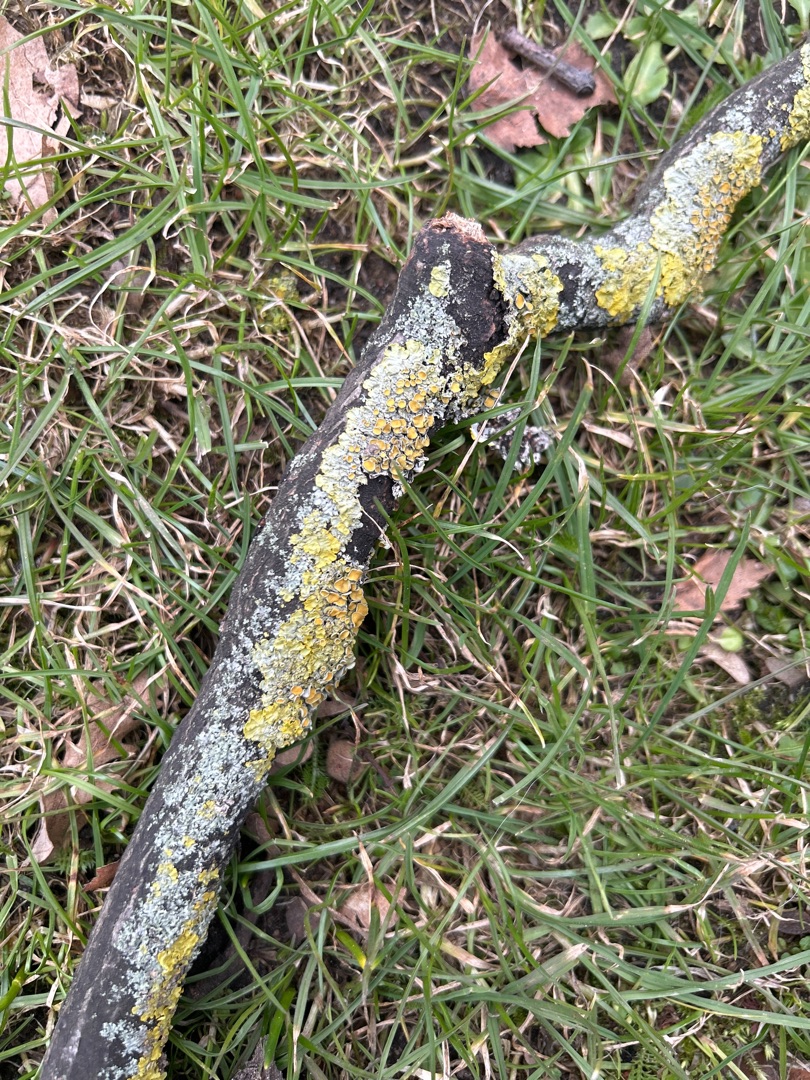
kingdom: Fungi
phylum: Ascomycota
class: Lecanoromycetes
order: Teloschistales
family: Teloschistaceae
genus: Xanthoria
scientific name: Xanthoria parietina
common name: Almindelig væggelav
